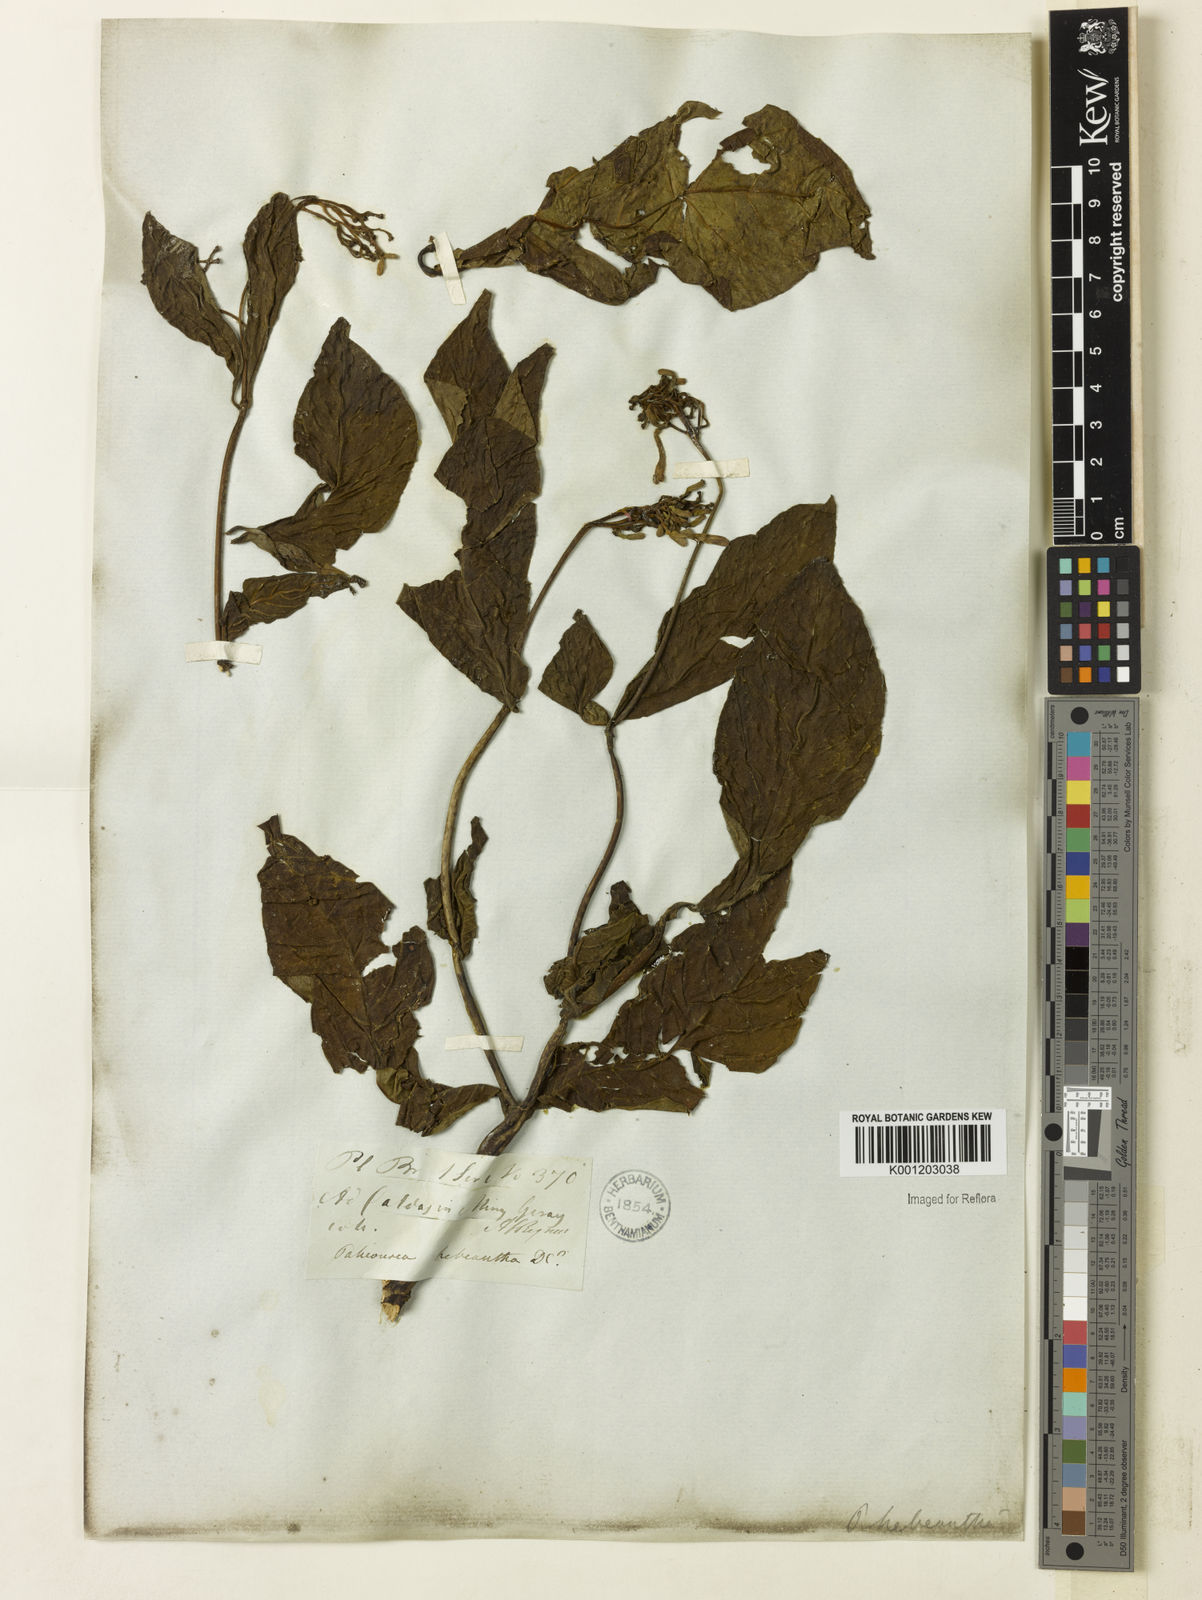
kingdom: Plantae
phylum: Tracheophyta
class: Magnoliopsida
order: Gentianales
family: Rubiaceae
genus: Palicourea
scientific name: Palicourea marcgravii
